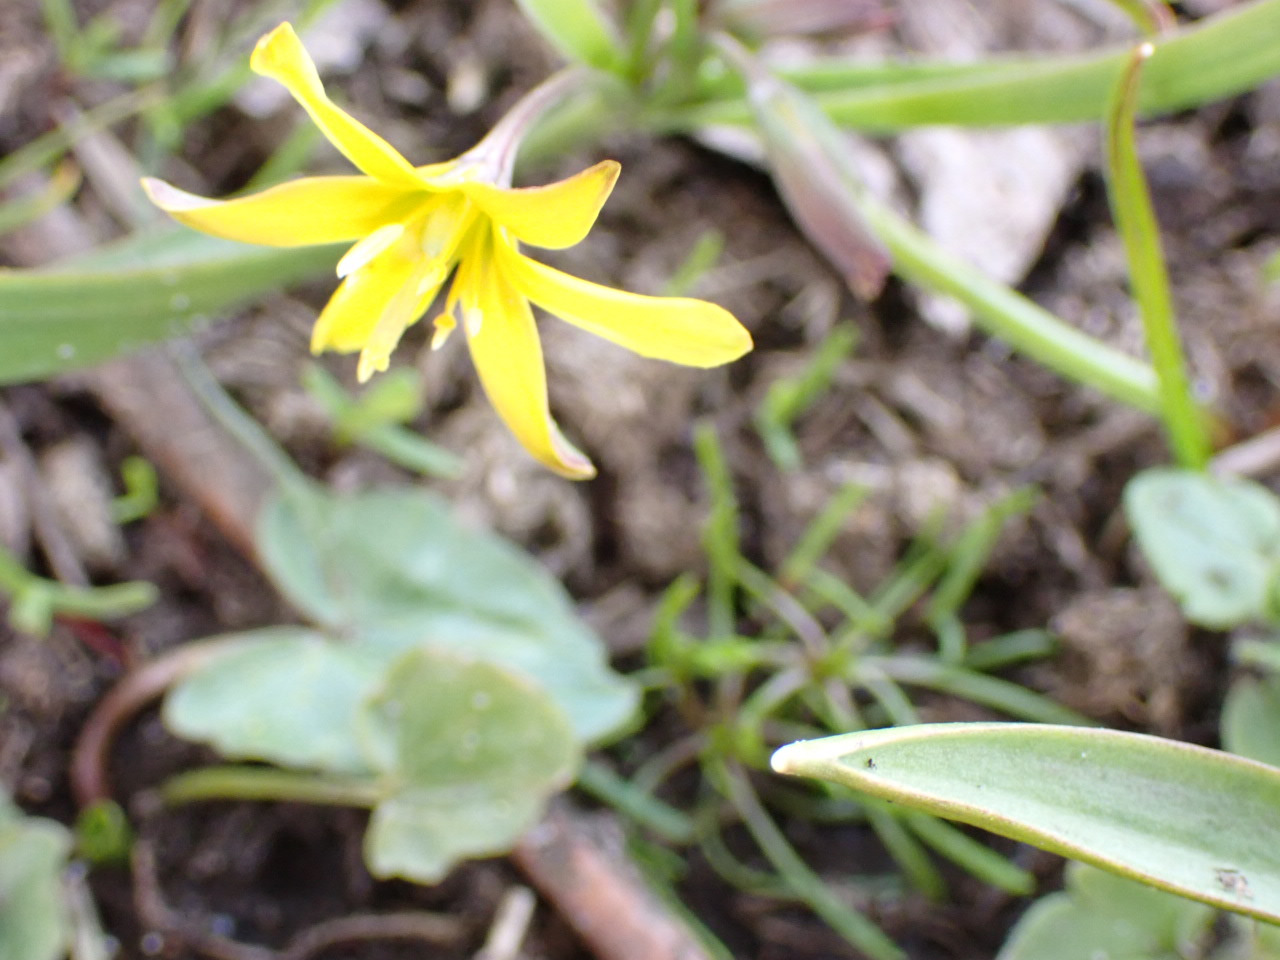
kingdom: Plantae
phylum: Tracheophyta
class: Liliopsida
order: Liliales
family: Liliaceae
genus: Gagea
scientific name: Gagea lutea
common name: Almindelig guldstjerne
